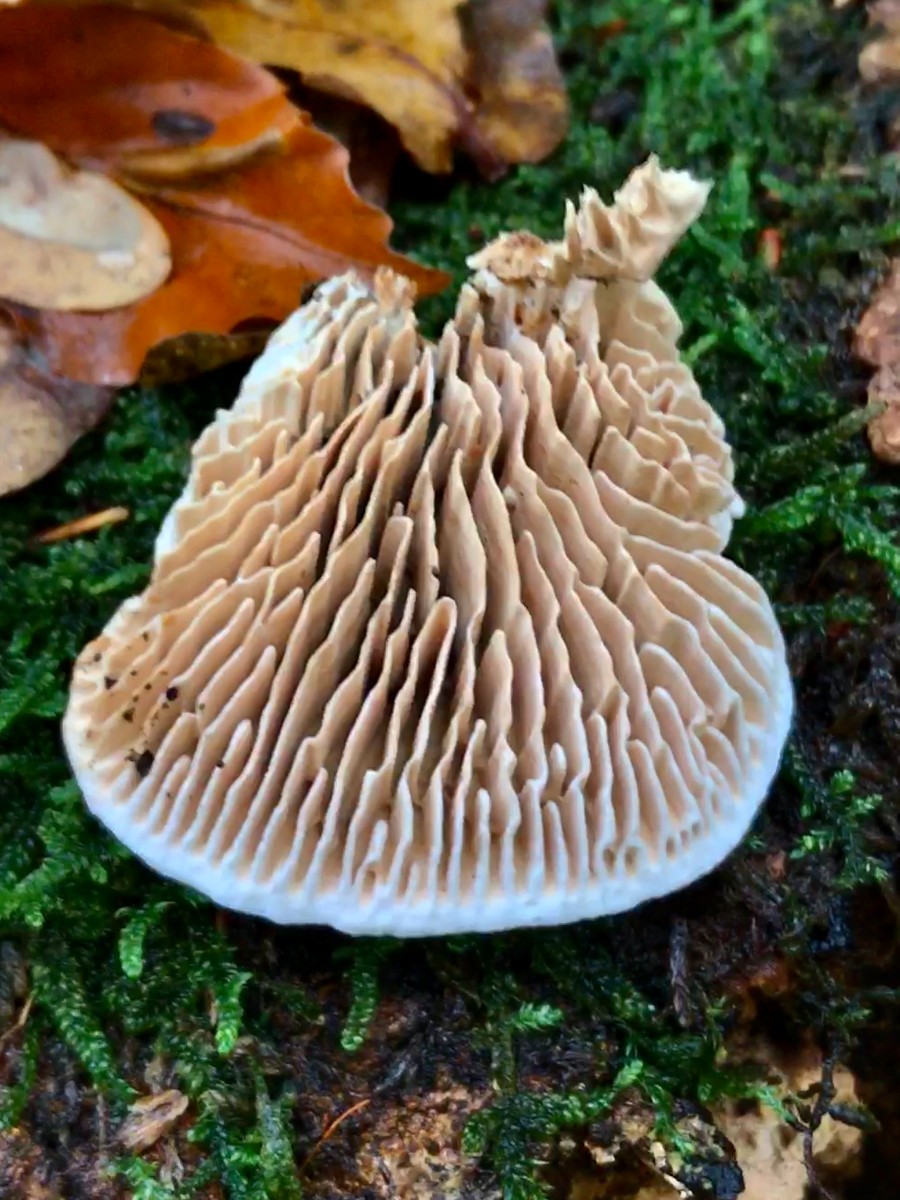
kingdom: Fungi
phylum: Basidiomycota
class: Agaricomycetes
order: Polyporales
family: Fomitopsidaceae
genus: Daedalea
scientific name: Daedalea quercina
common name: ege-labyrintsvamp
